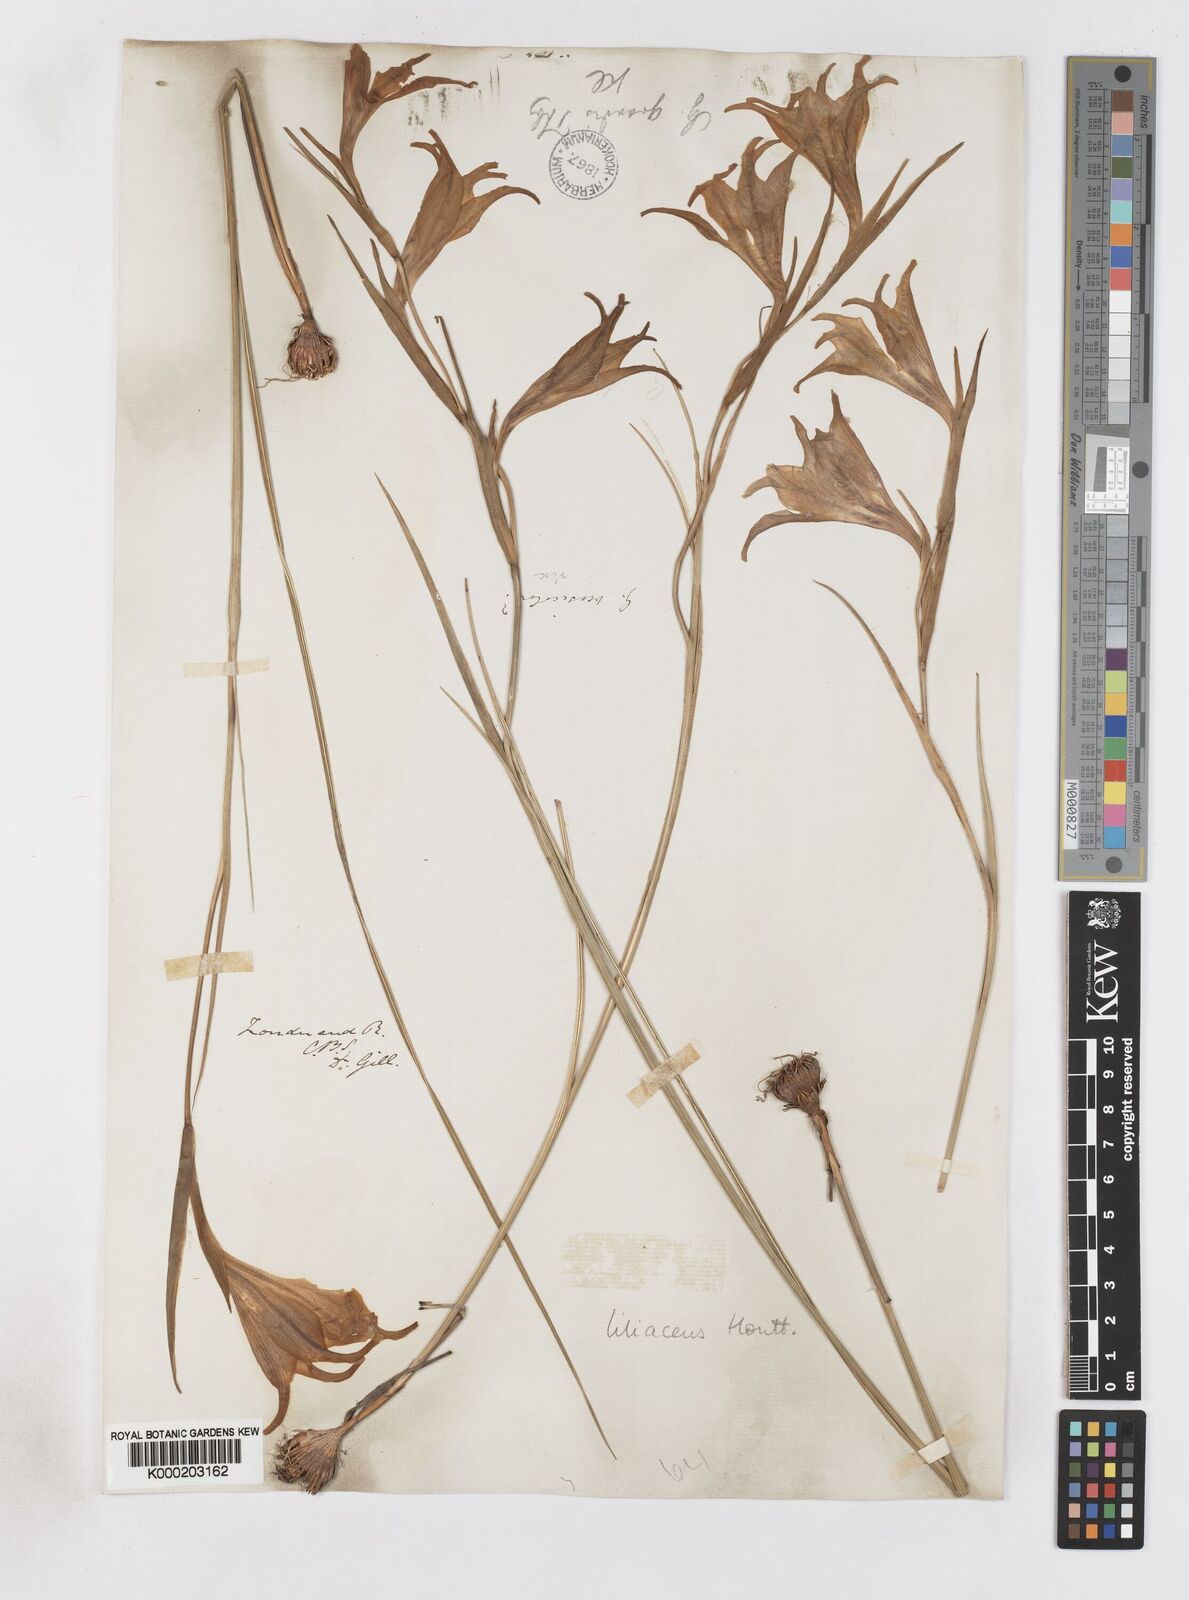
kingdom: Plantae
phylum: Tracheophyta
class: Liliopsida
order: Asparagales
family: Iridaceae
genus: Gladiolus
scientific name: Gladiolus liliaceus
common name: Large brown afrikaner
